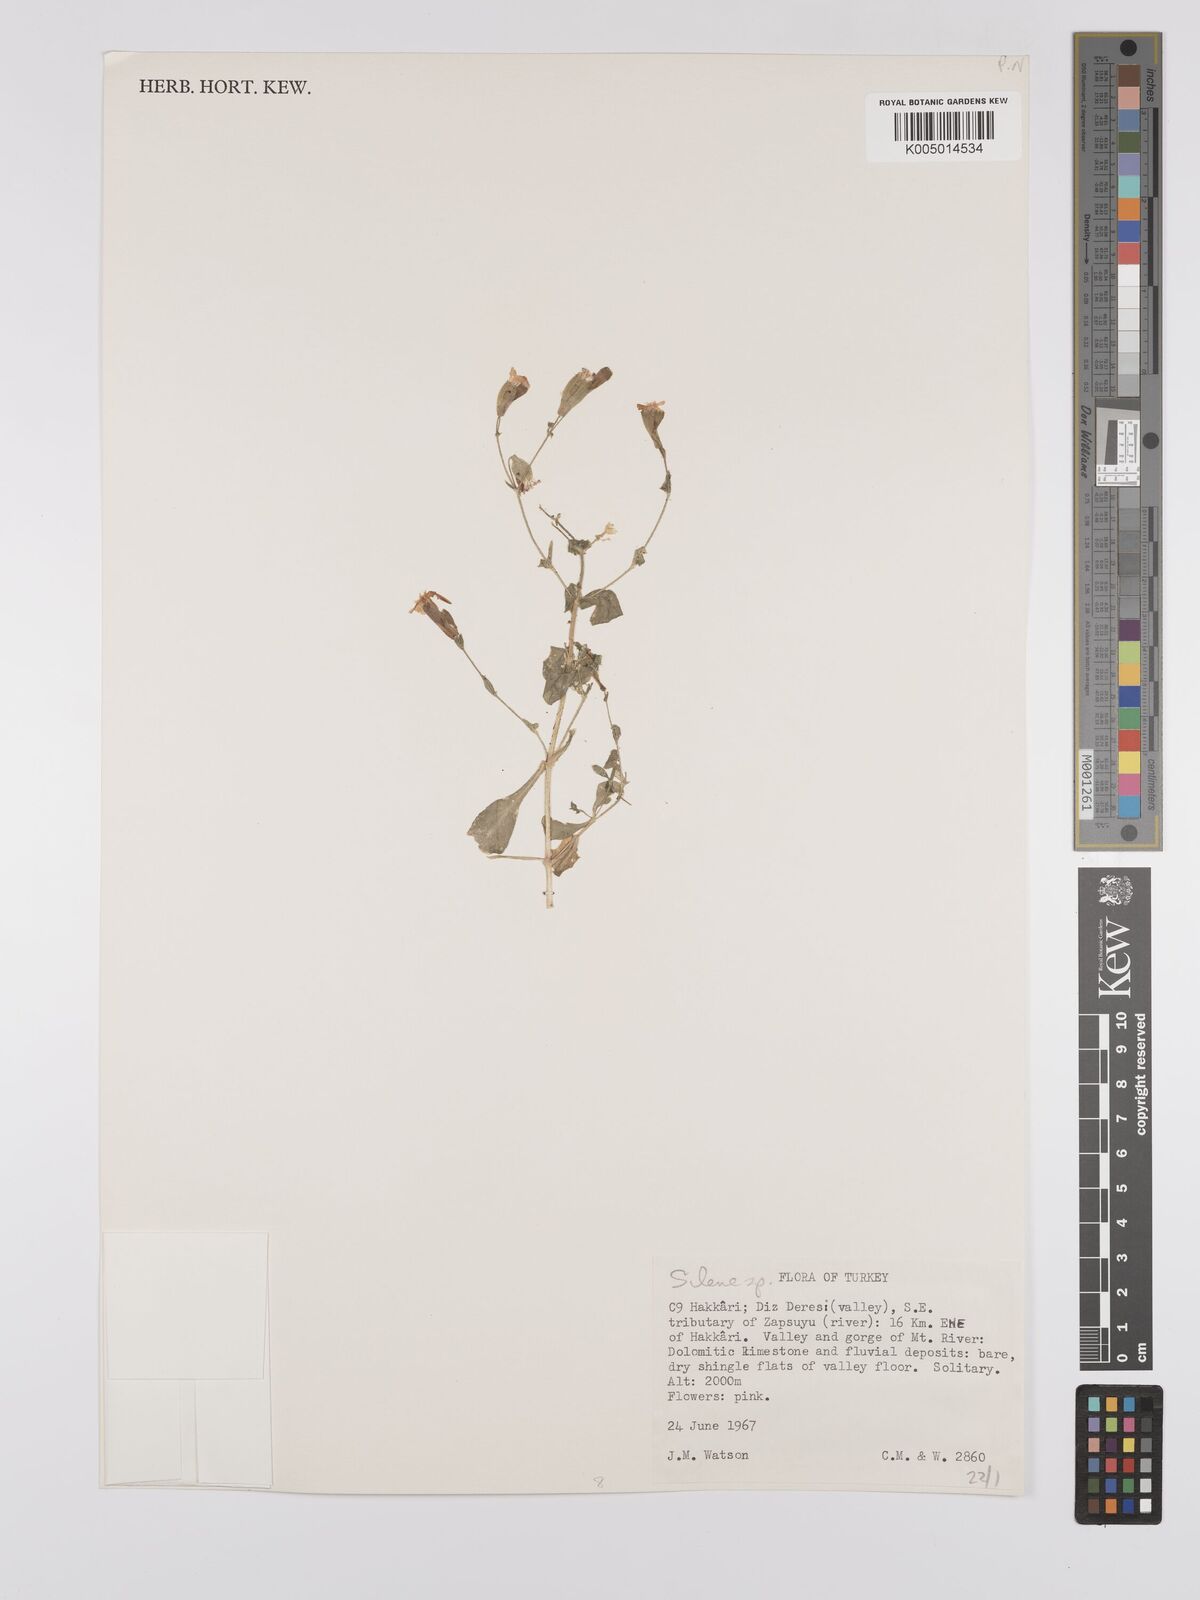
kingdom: Plantae
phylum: Tracheophyta
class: Magnoliopsida
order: Caryophyllales
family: Caryophyllaceae
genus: Silene
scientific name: Silene
